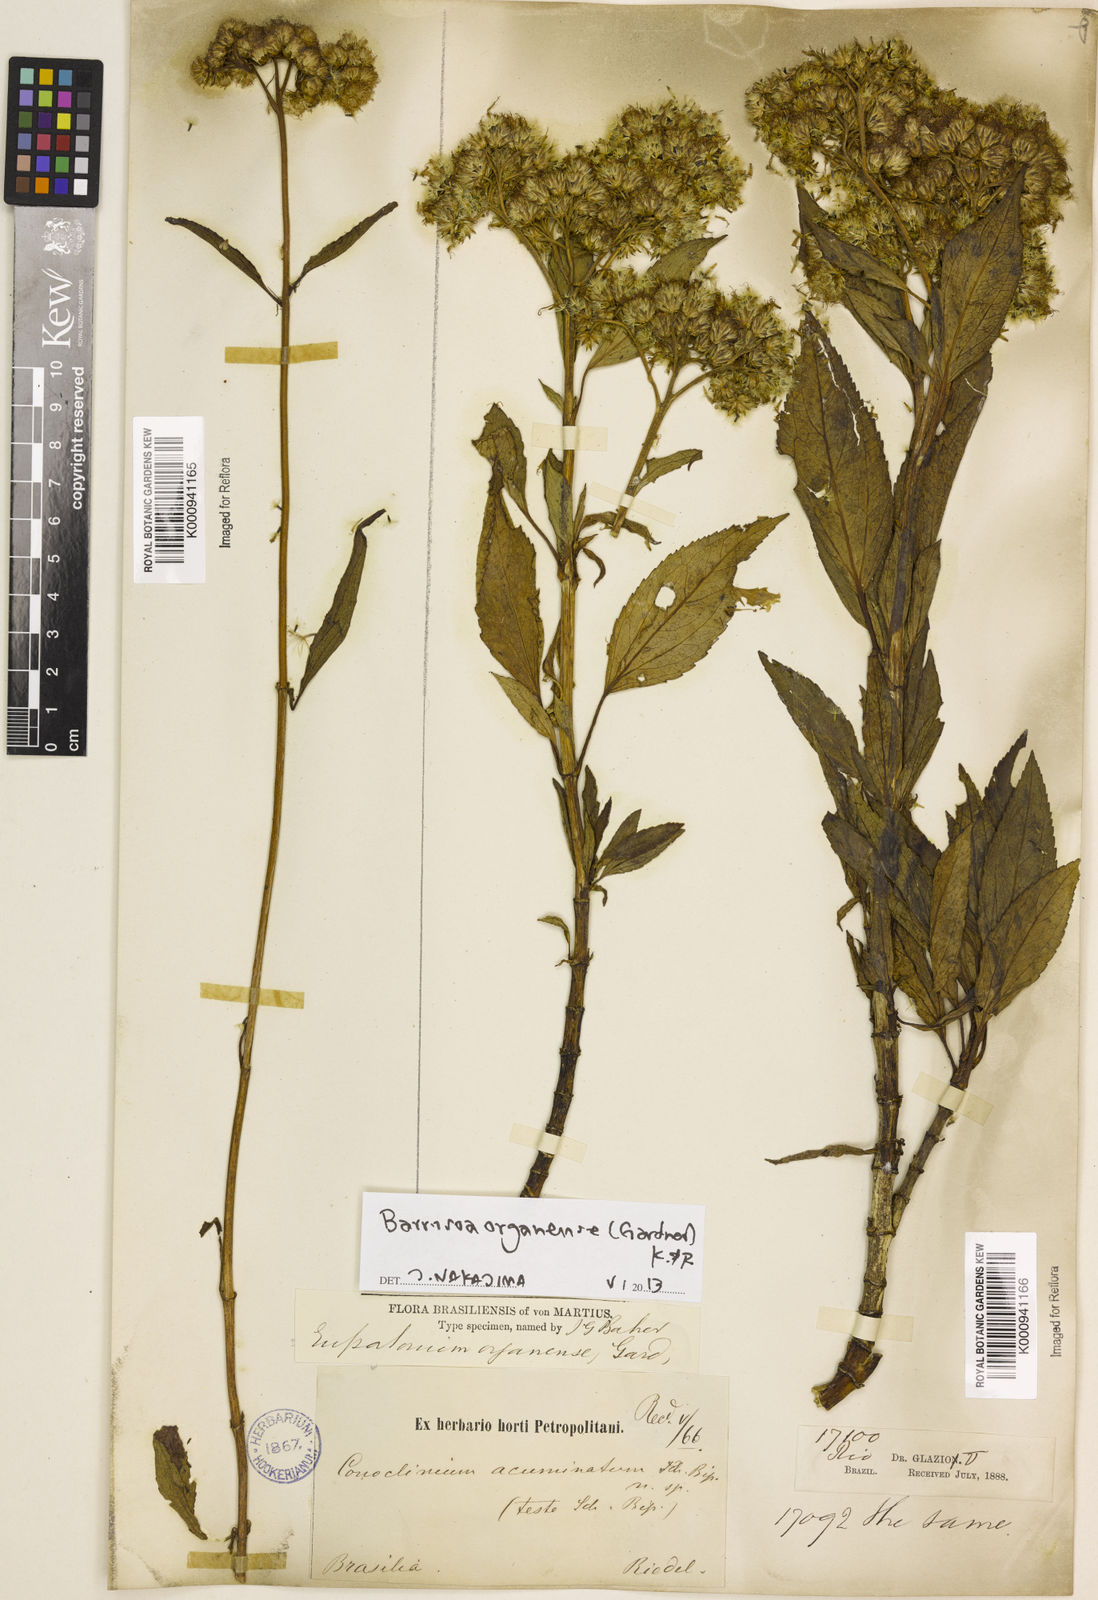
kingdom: Plantae
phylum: Tracheophyta
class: Magnoliopsida
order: Asterales
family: Asteraceae
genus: Barrosoa
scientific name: Barrosoa
